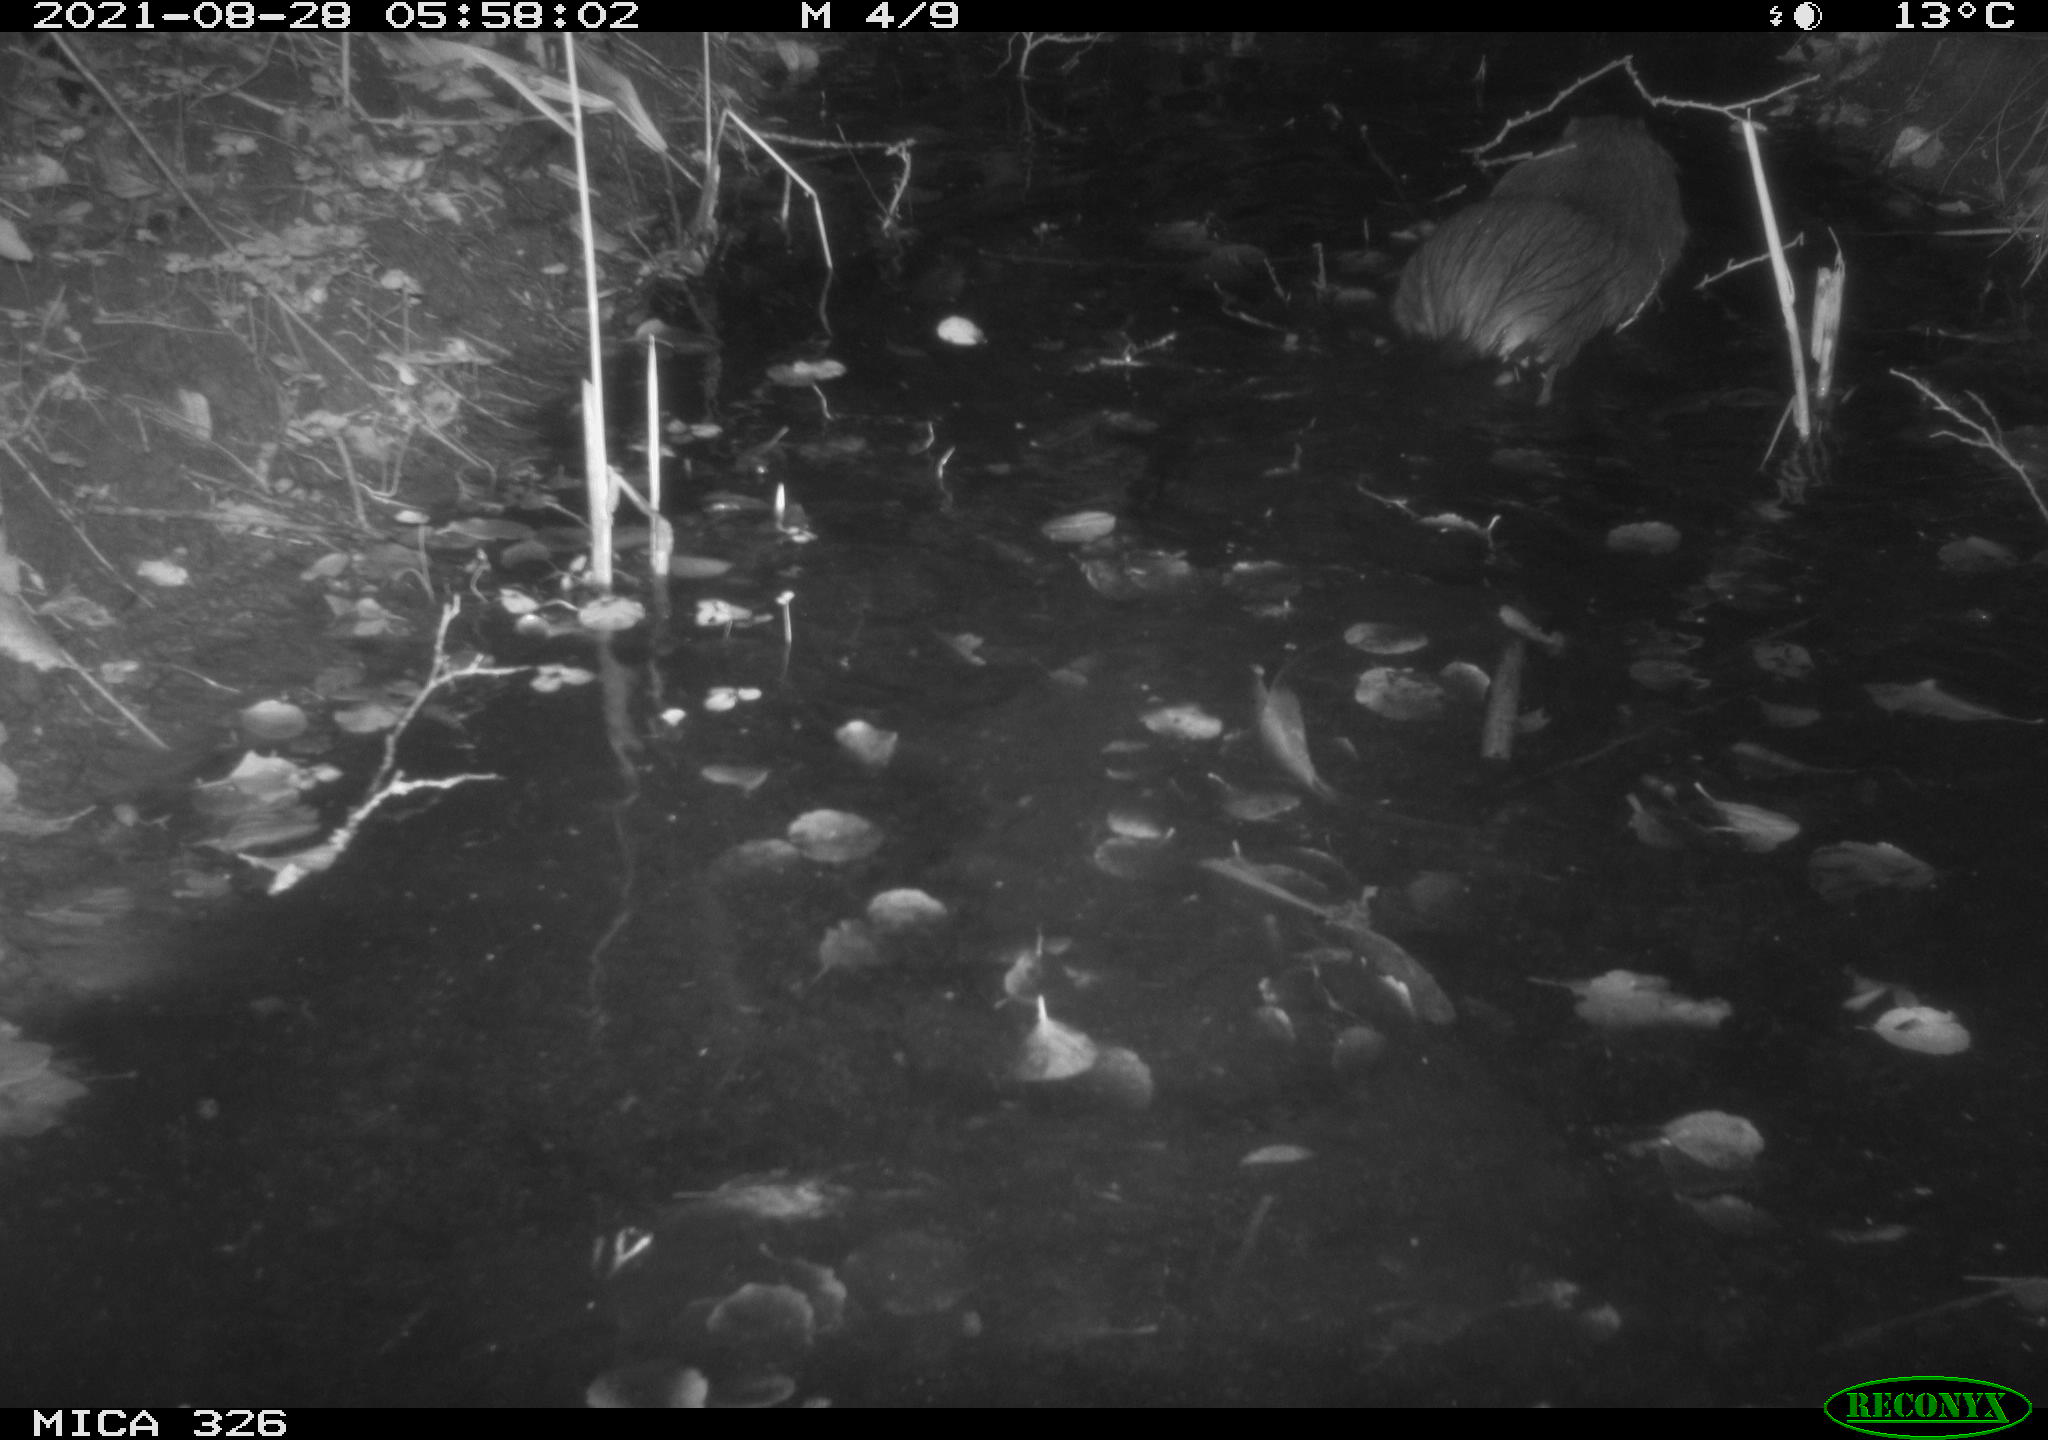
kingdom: Animalia
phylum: Chordata
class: Mammalia
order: Rodentia
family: Myocastoridae
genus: Myocastor
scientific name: Myocastor coypus
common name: Coypu
